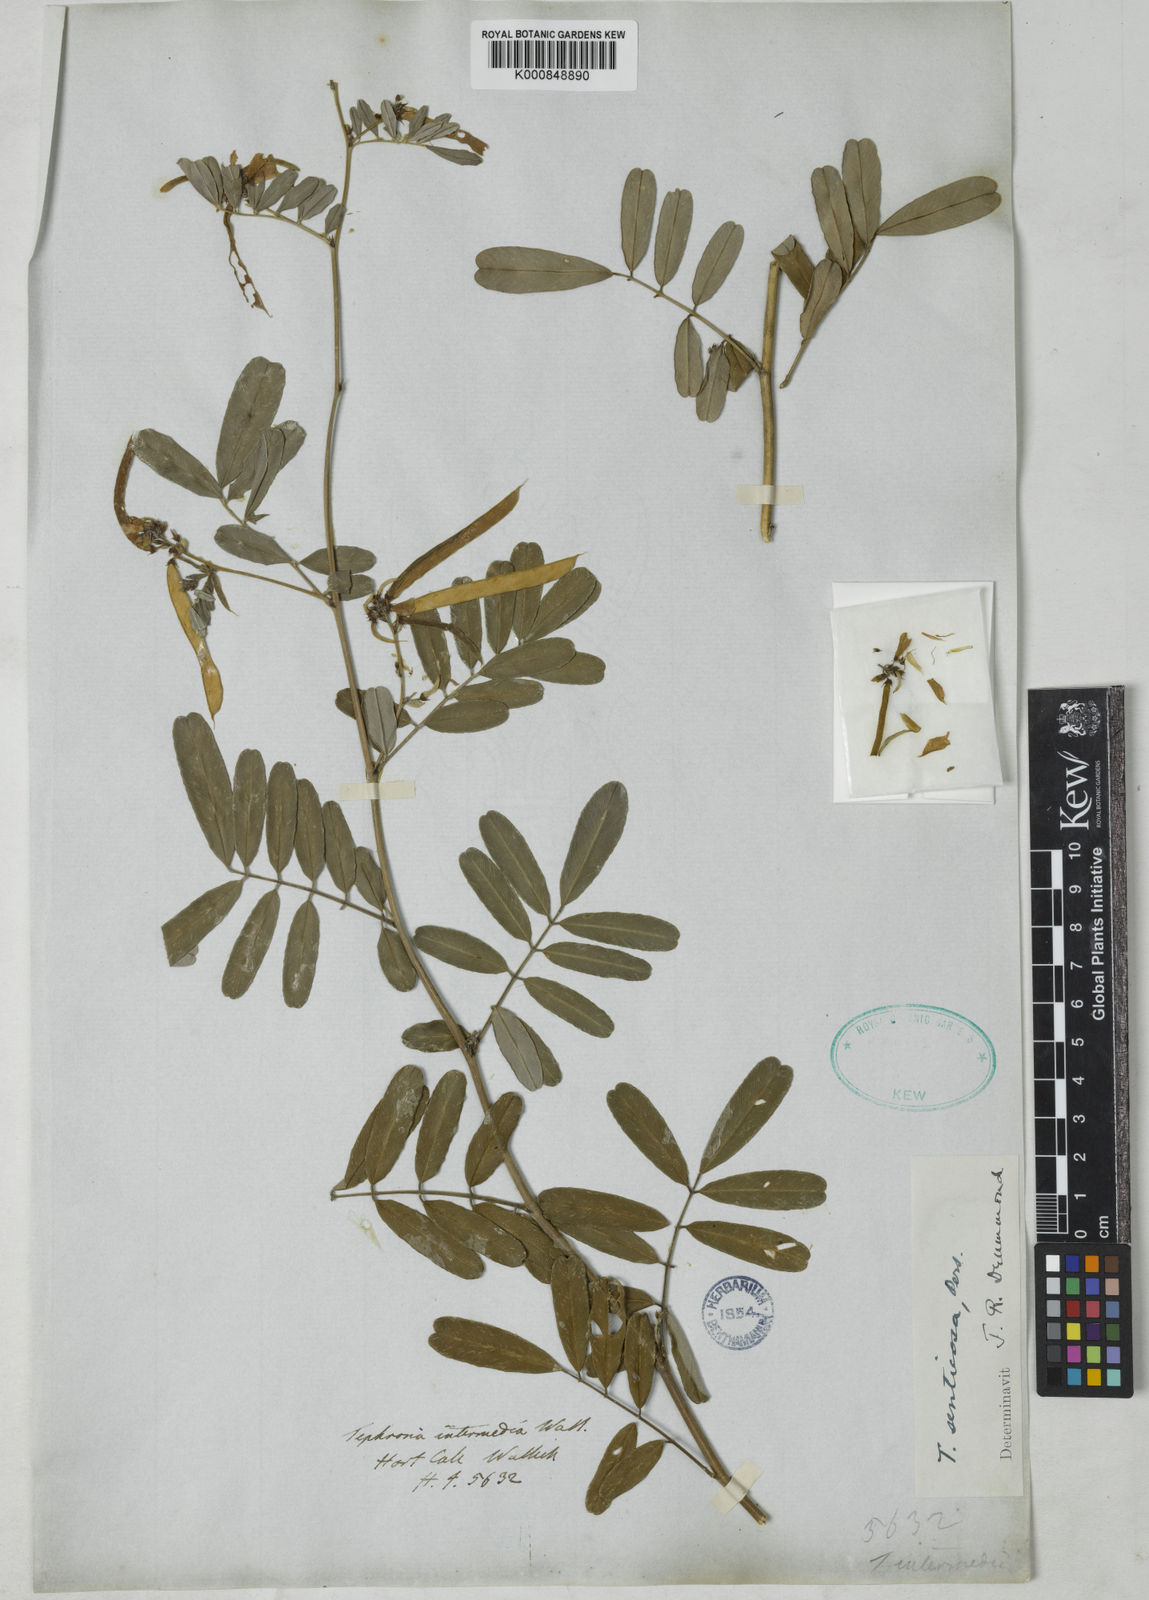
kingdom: Plantae
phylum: Tracheophyta
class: Magnoliopsida
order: Fabales
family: Fabaceae
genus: Tephrosia
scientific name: Tephrosia senticosa
